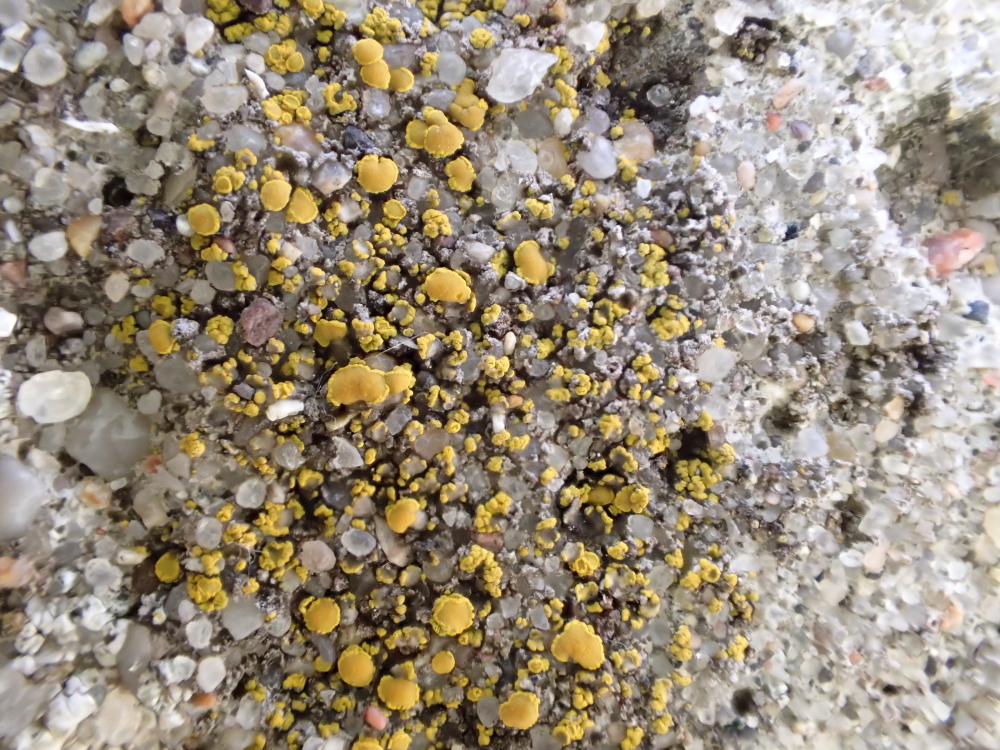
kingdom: Fungi
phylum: Ascomycota
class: Candelariomycetes
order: Candelariales
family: Candelariaceae
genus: Candelariella
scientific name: Candelariella aurella
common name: liden æggeblommelav
